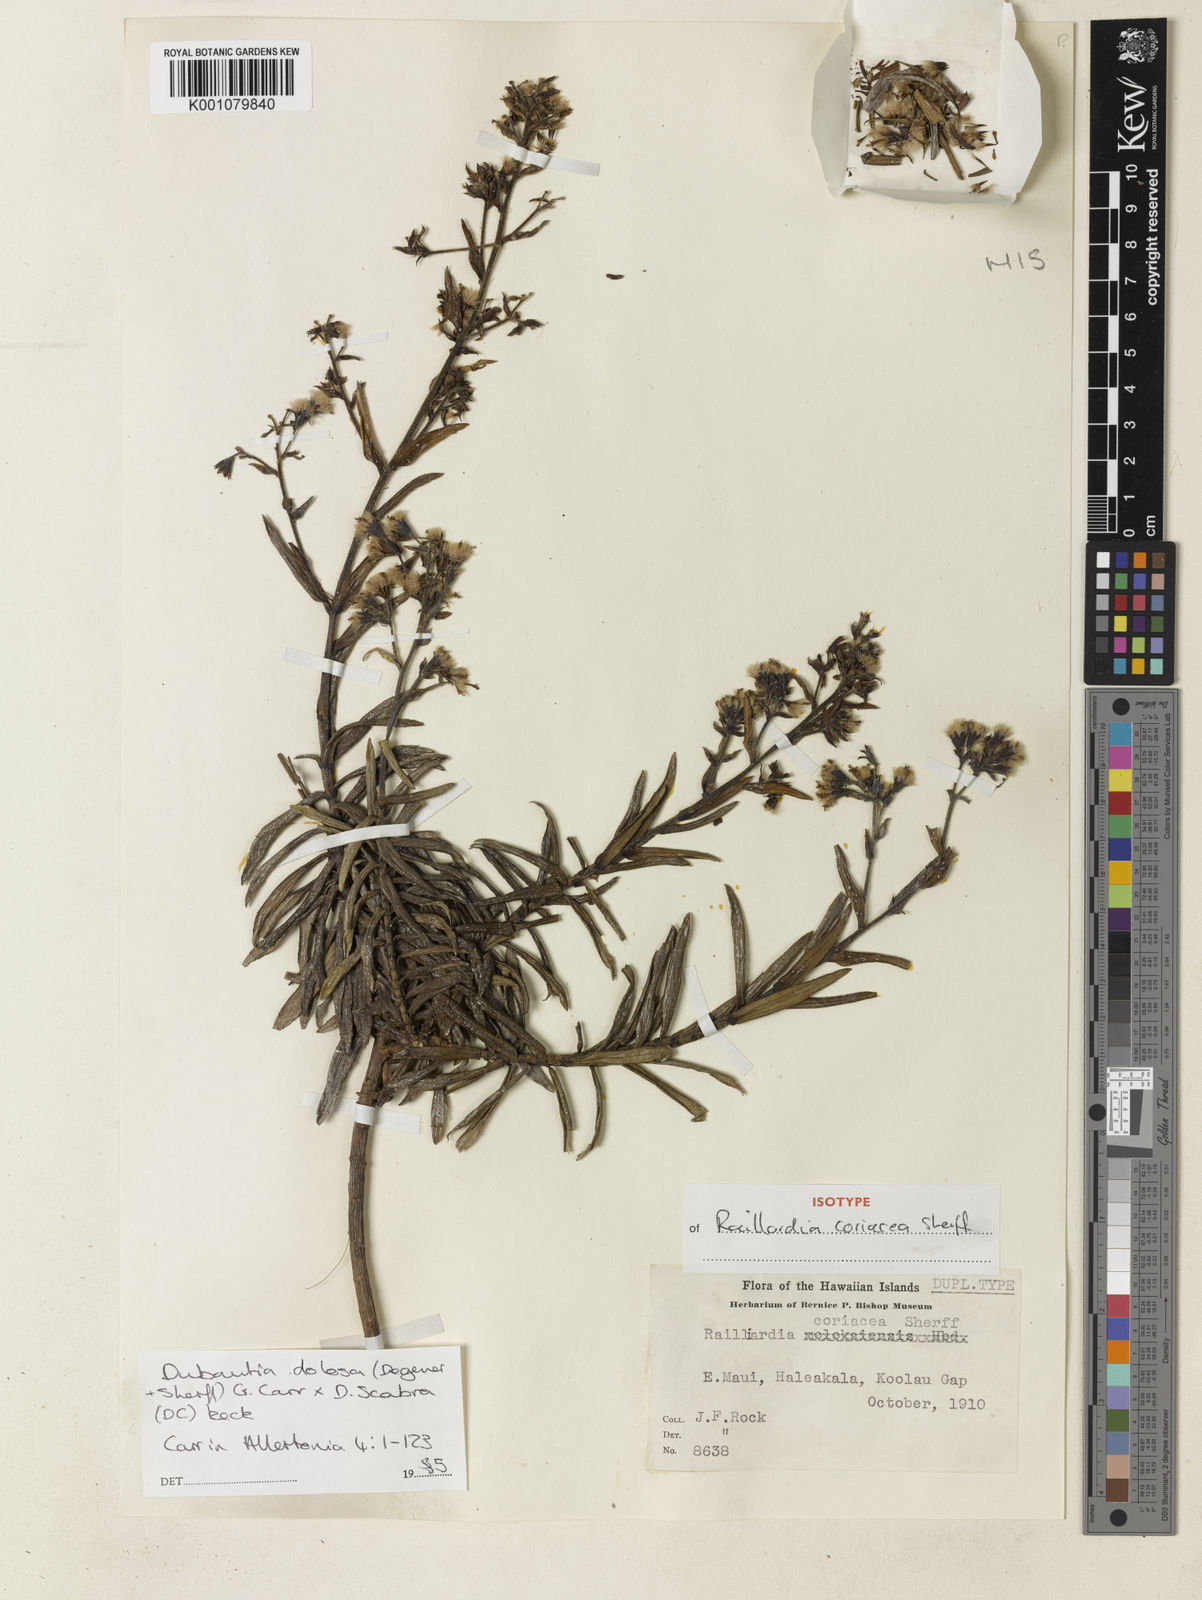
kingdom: Plantae
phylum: Tracheophyta
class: Magnoliopsida
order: Asterales
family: Asteraceae
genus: Dubautia
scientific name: Dubautia waianapanapaensis
